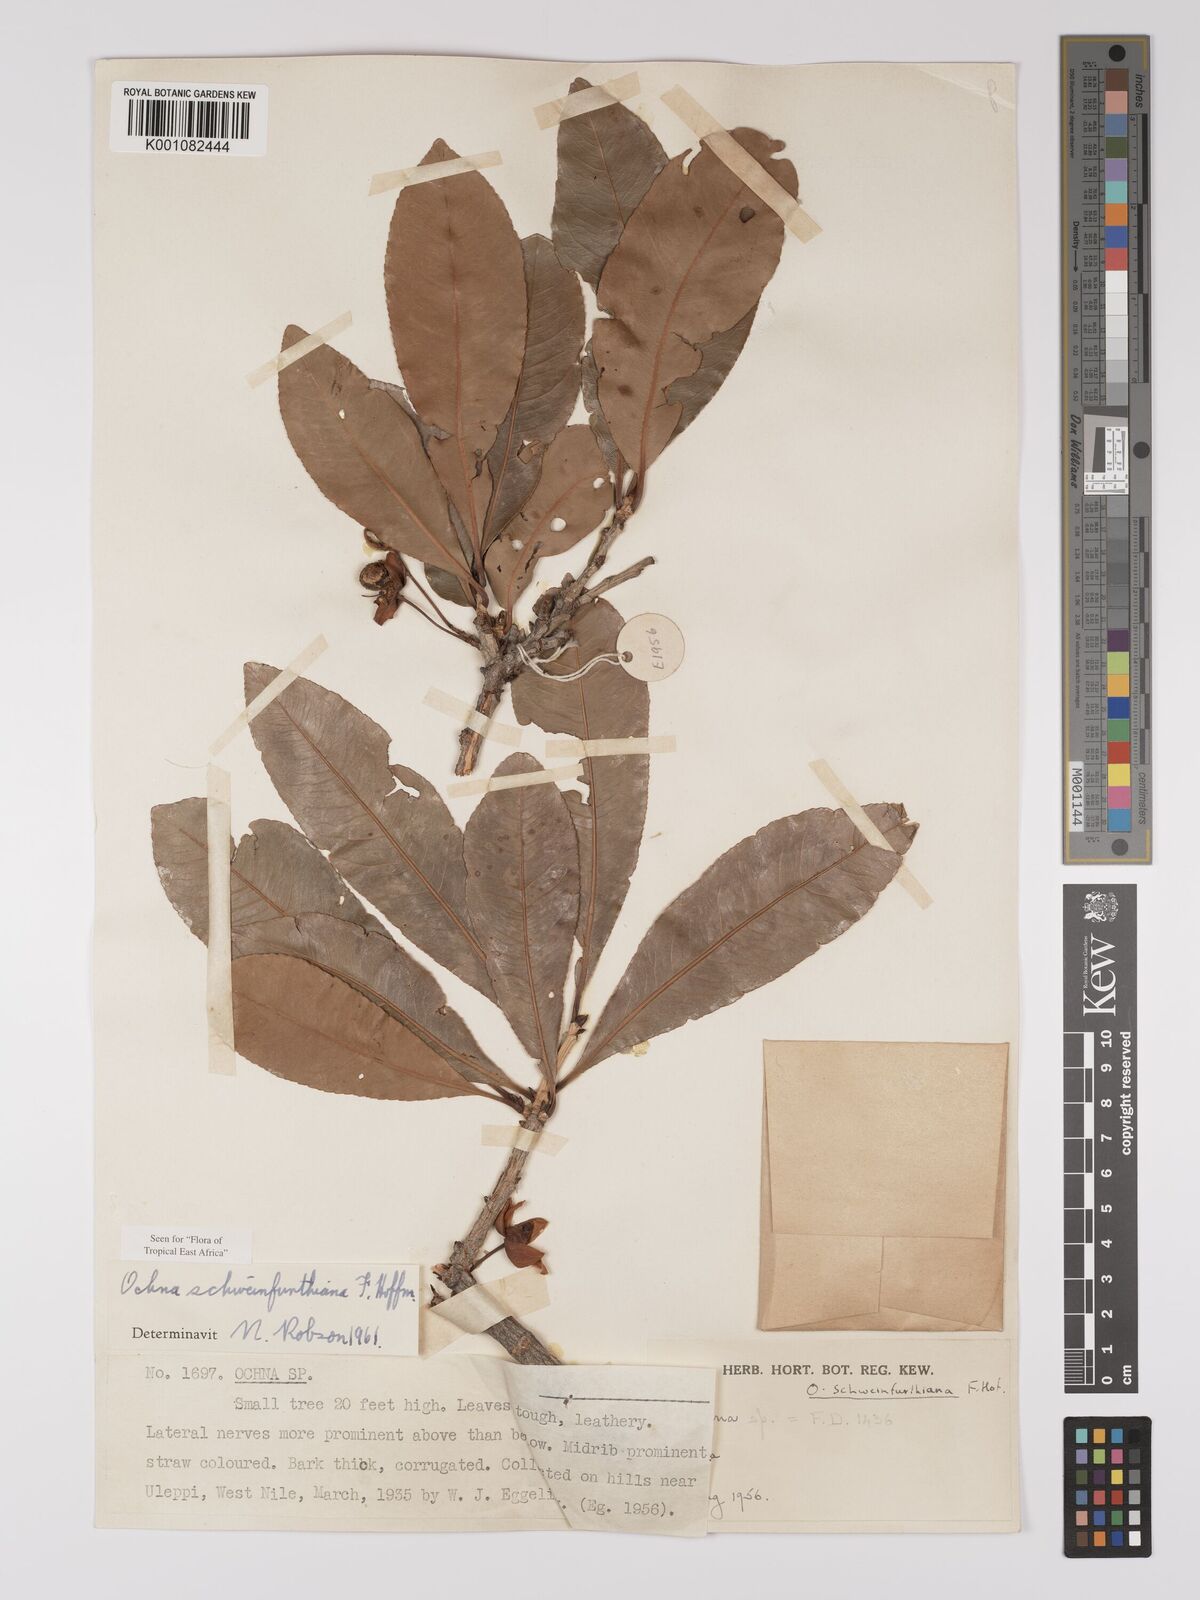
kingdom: Plantae
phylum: Tracheophyta
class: Magnoliopsida
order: Malpighiales
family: Ochnaceae
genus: Ochna
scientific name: Ochna schweinfurthiana
